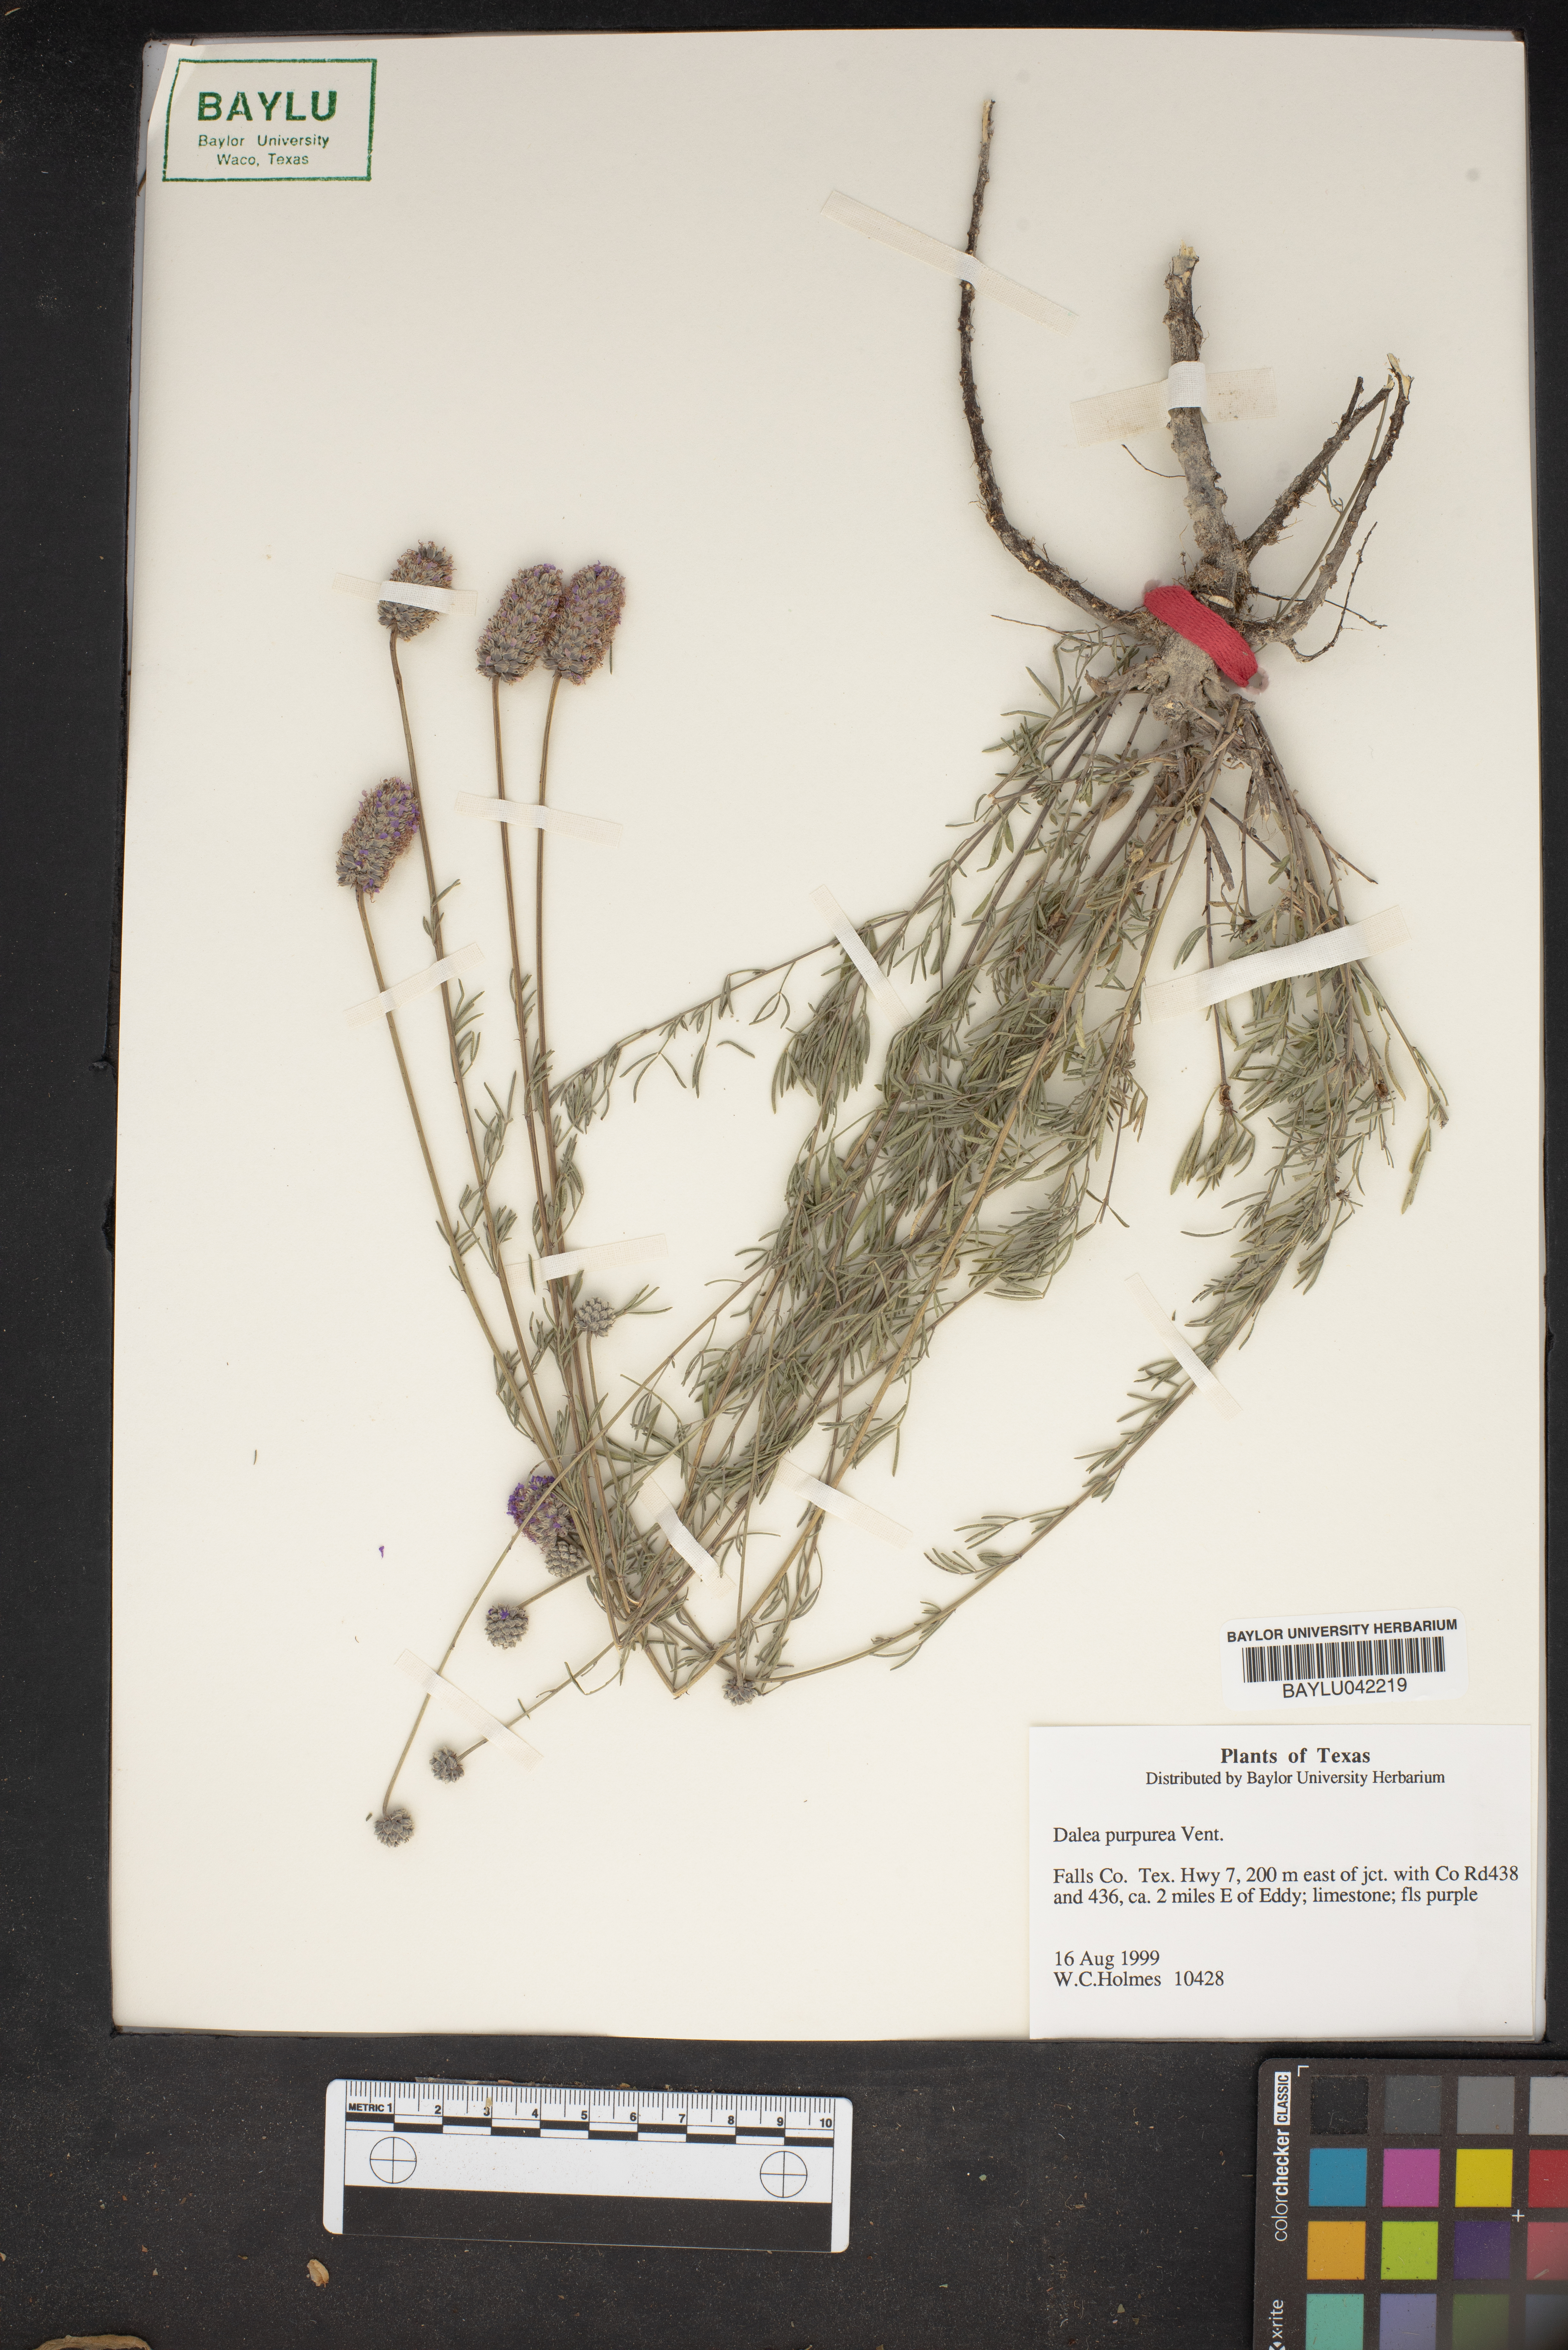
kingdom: Plantae
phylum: Tracheophyta
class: Magnoliopsida
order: Fabales
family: Fabaceae
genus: Dalea
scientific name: Dalea purpurea
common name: Purple prairie-clover
